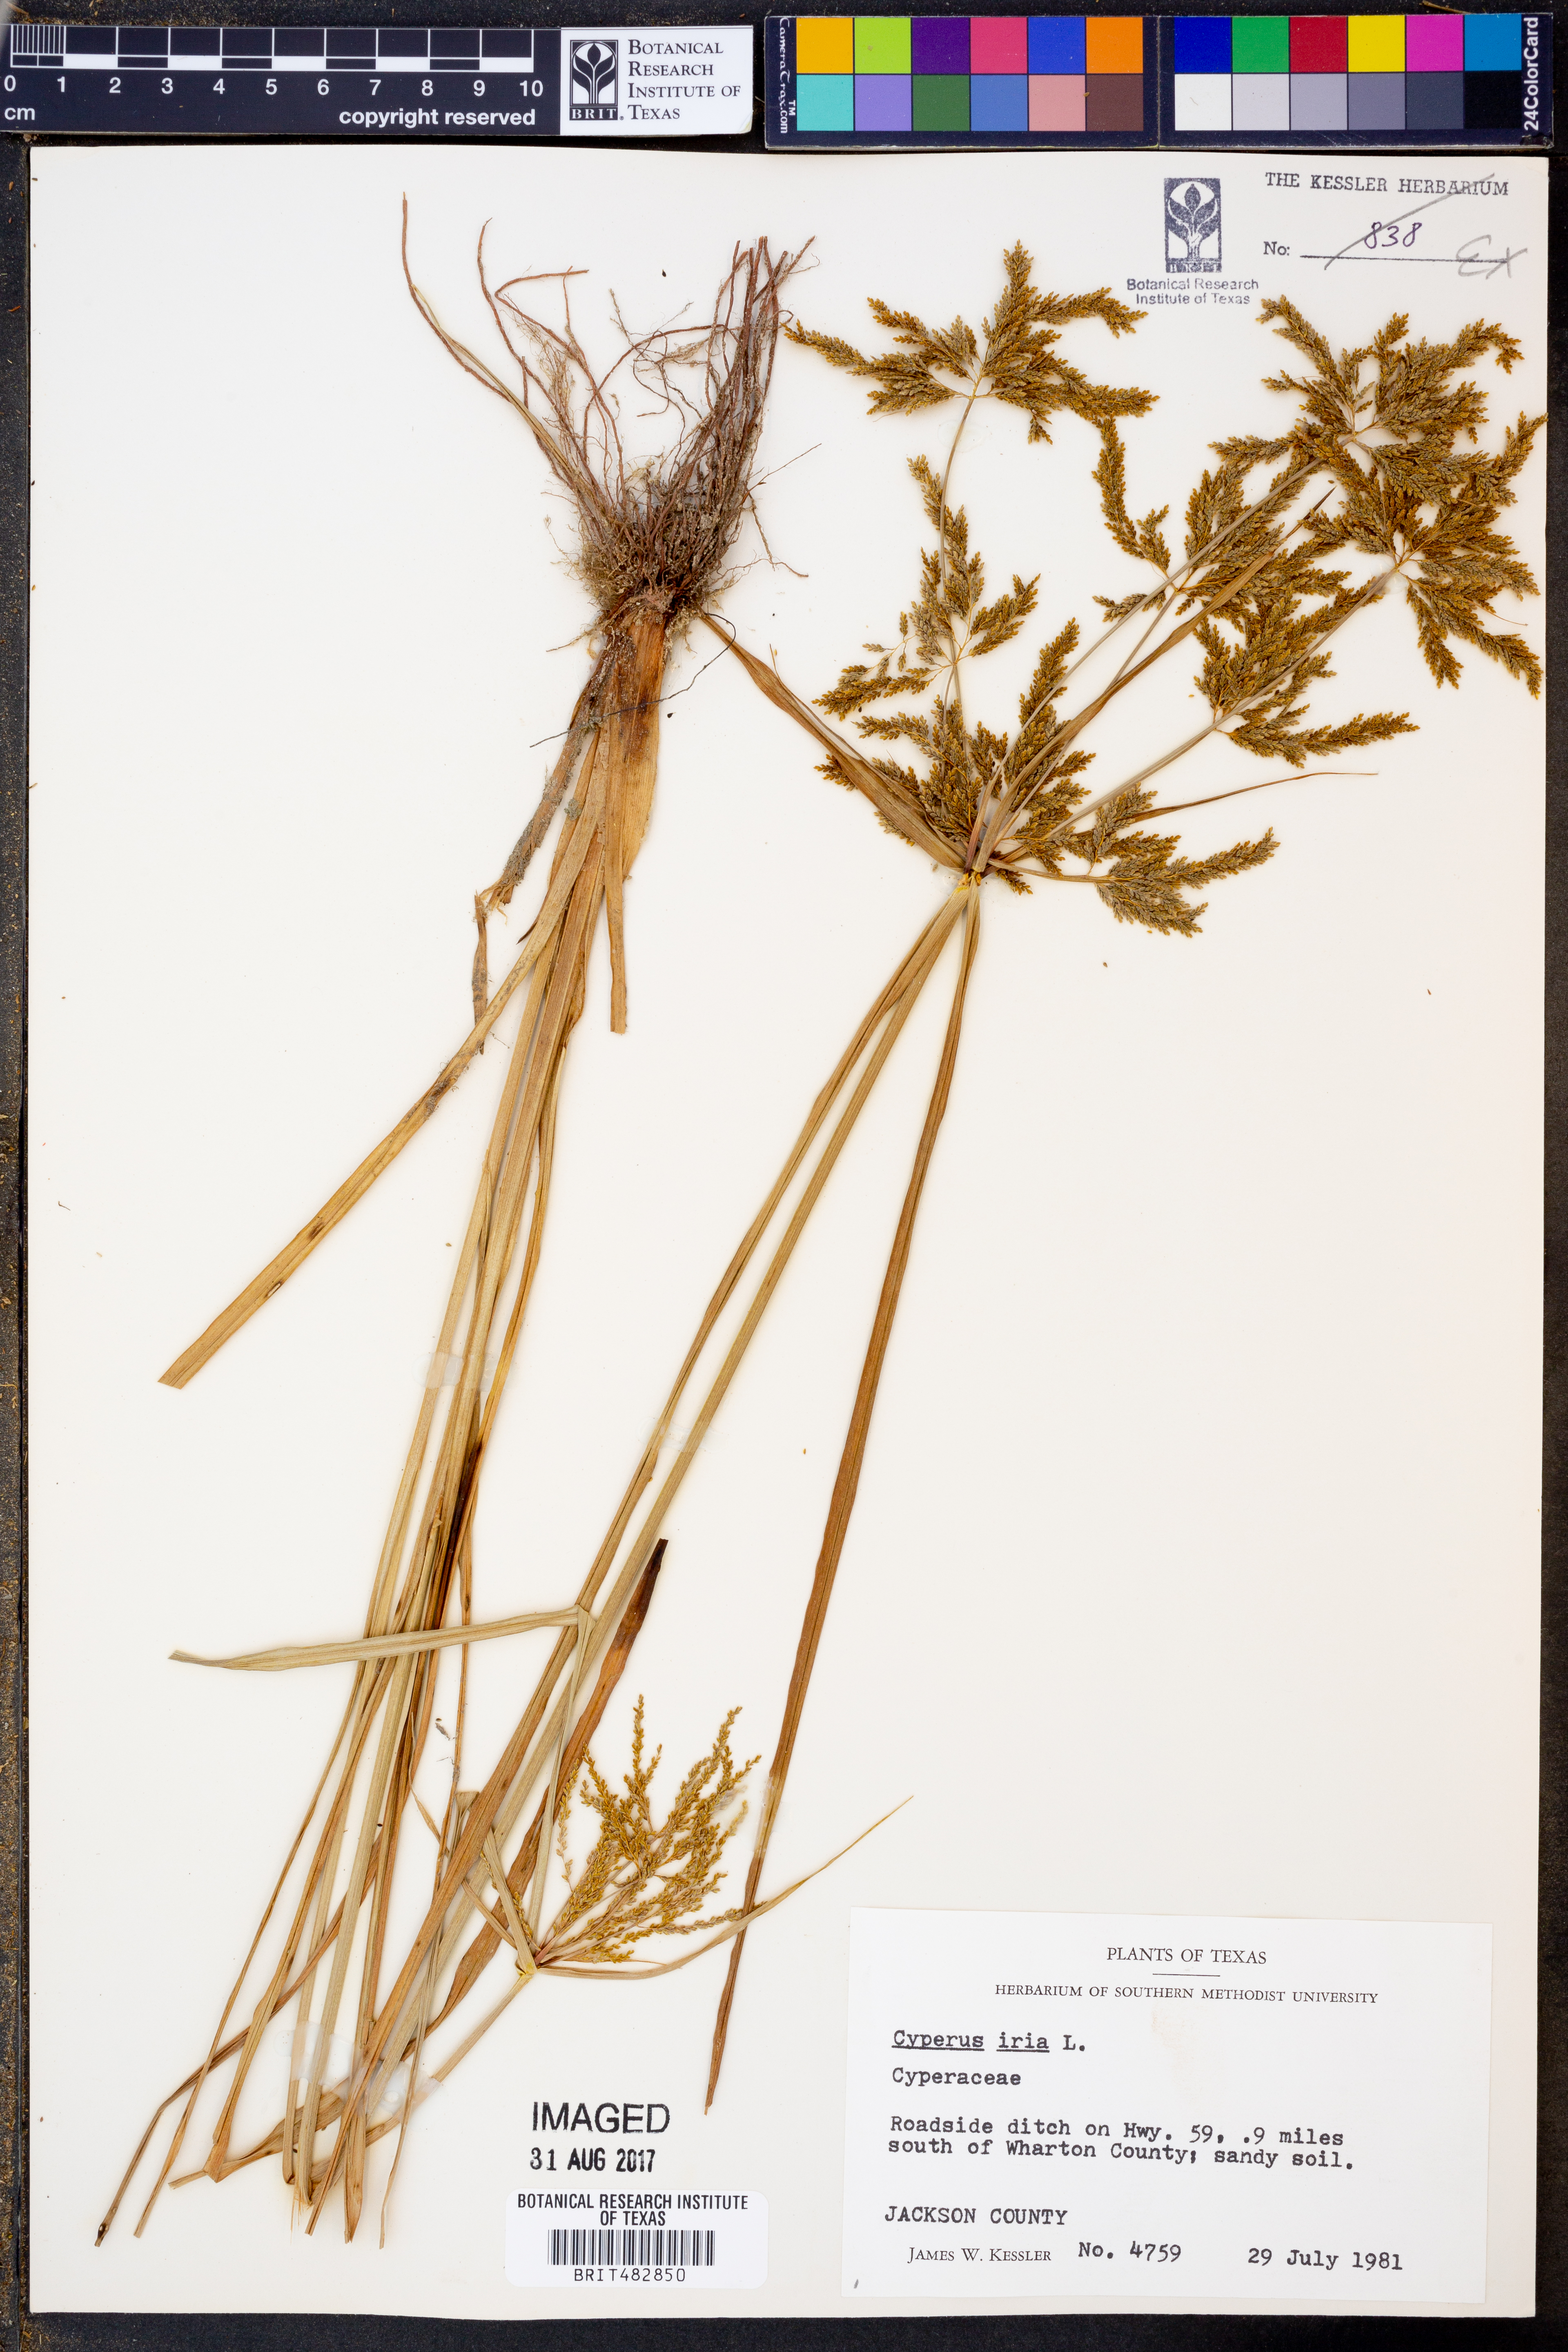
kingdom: Plantae
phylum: Tracheophyta
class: Liliopsida
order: Poales
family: Cyperaceae
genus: Cyperus
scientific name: Cyperus iria
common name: Ricefield flatsedge
